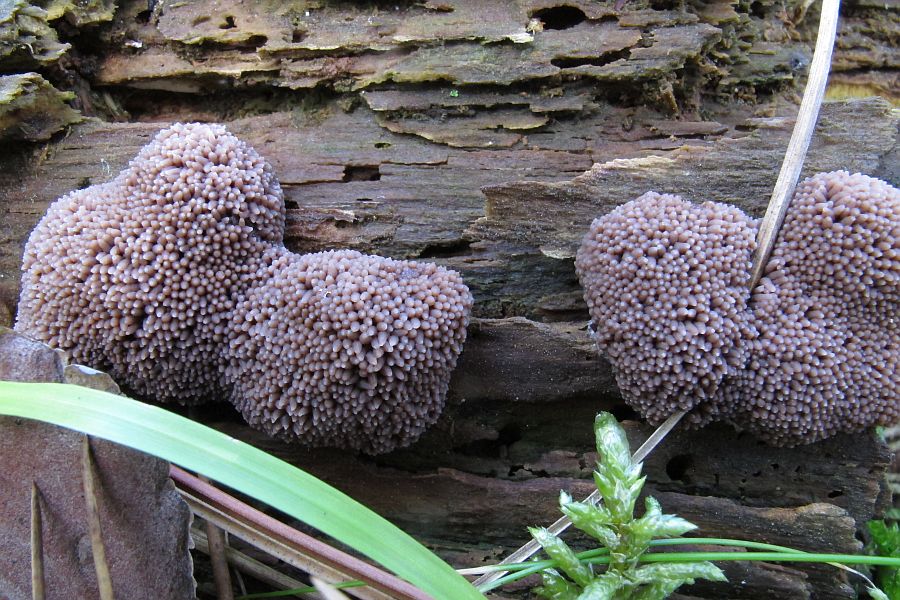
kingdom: Protozoa
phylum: Mycetozoa
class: Myxomycetes
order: Cribrariales
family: Tubiferaceae
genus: Tubifera
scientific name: Tubifera ferruginosa
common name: kanel-støvrør
